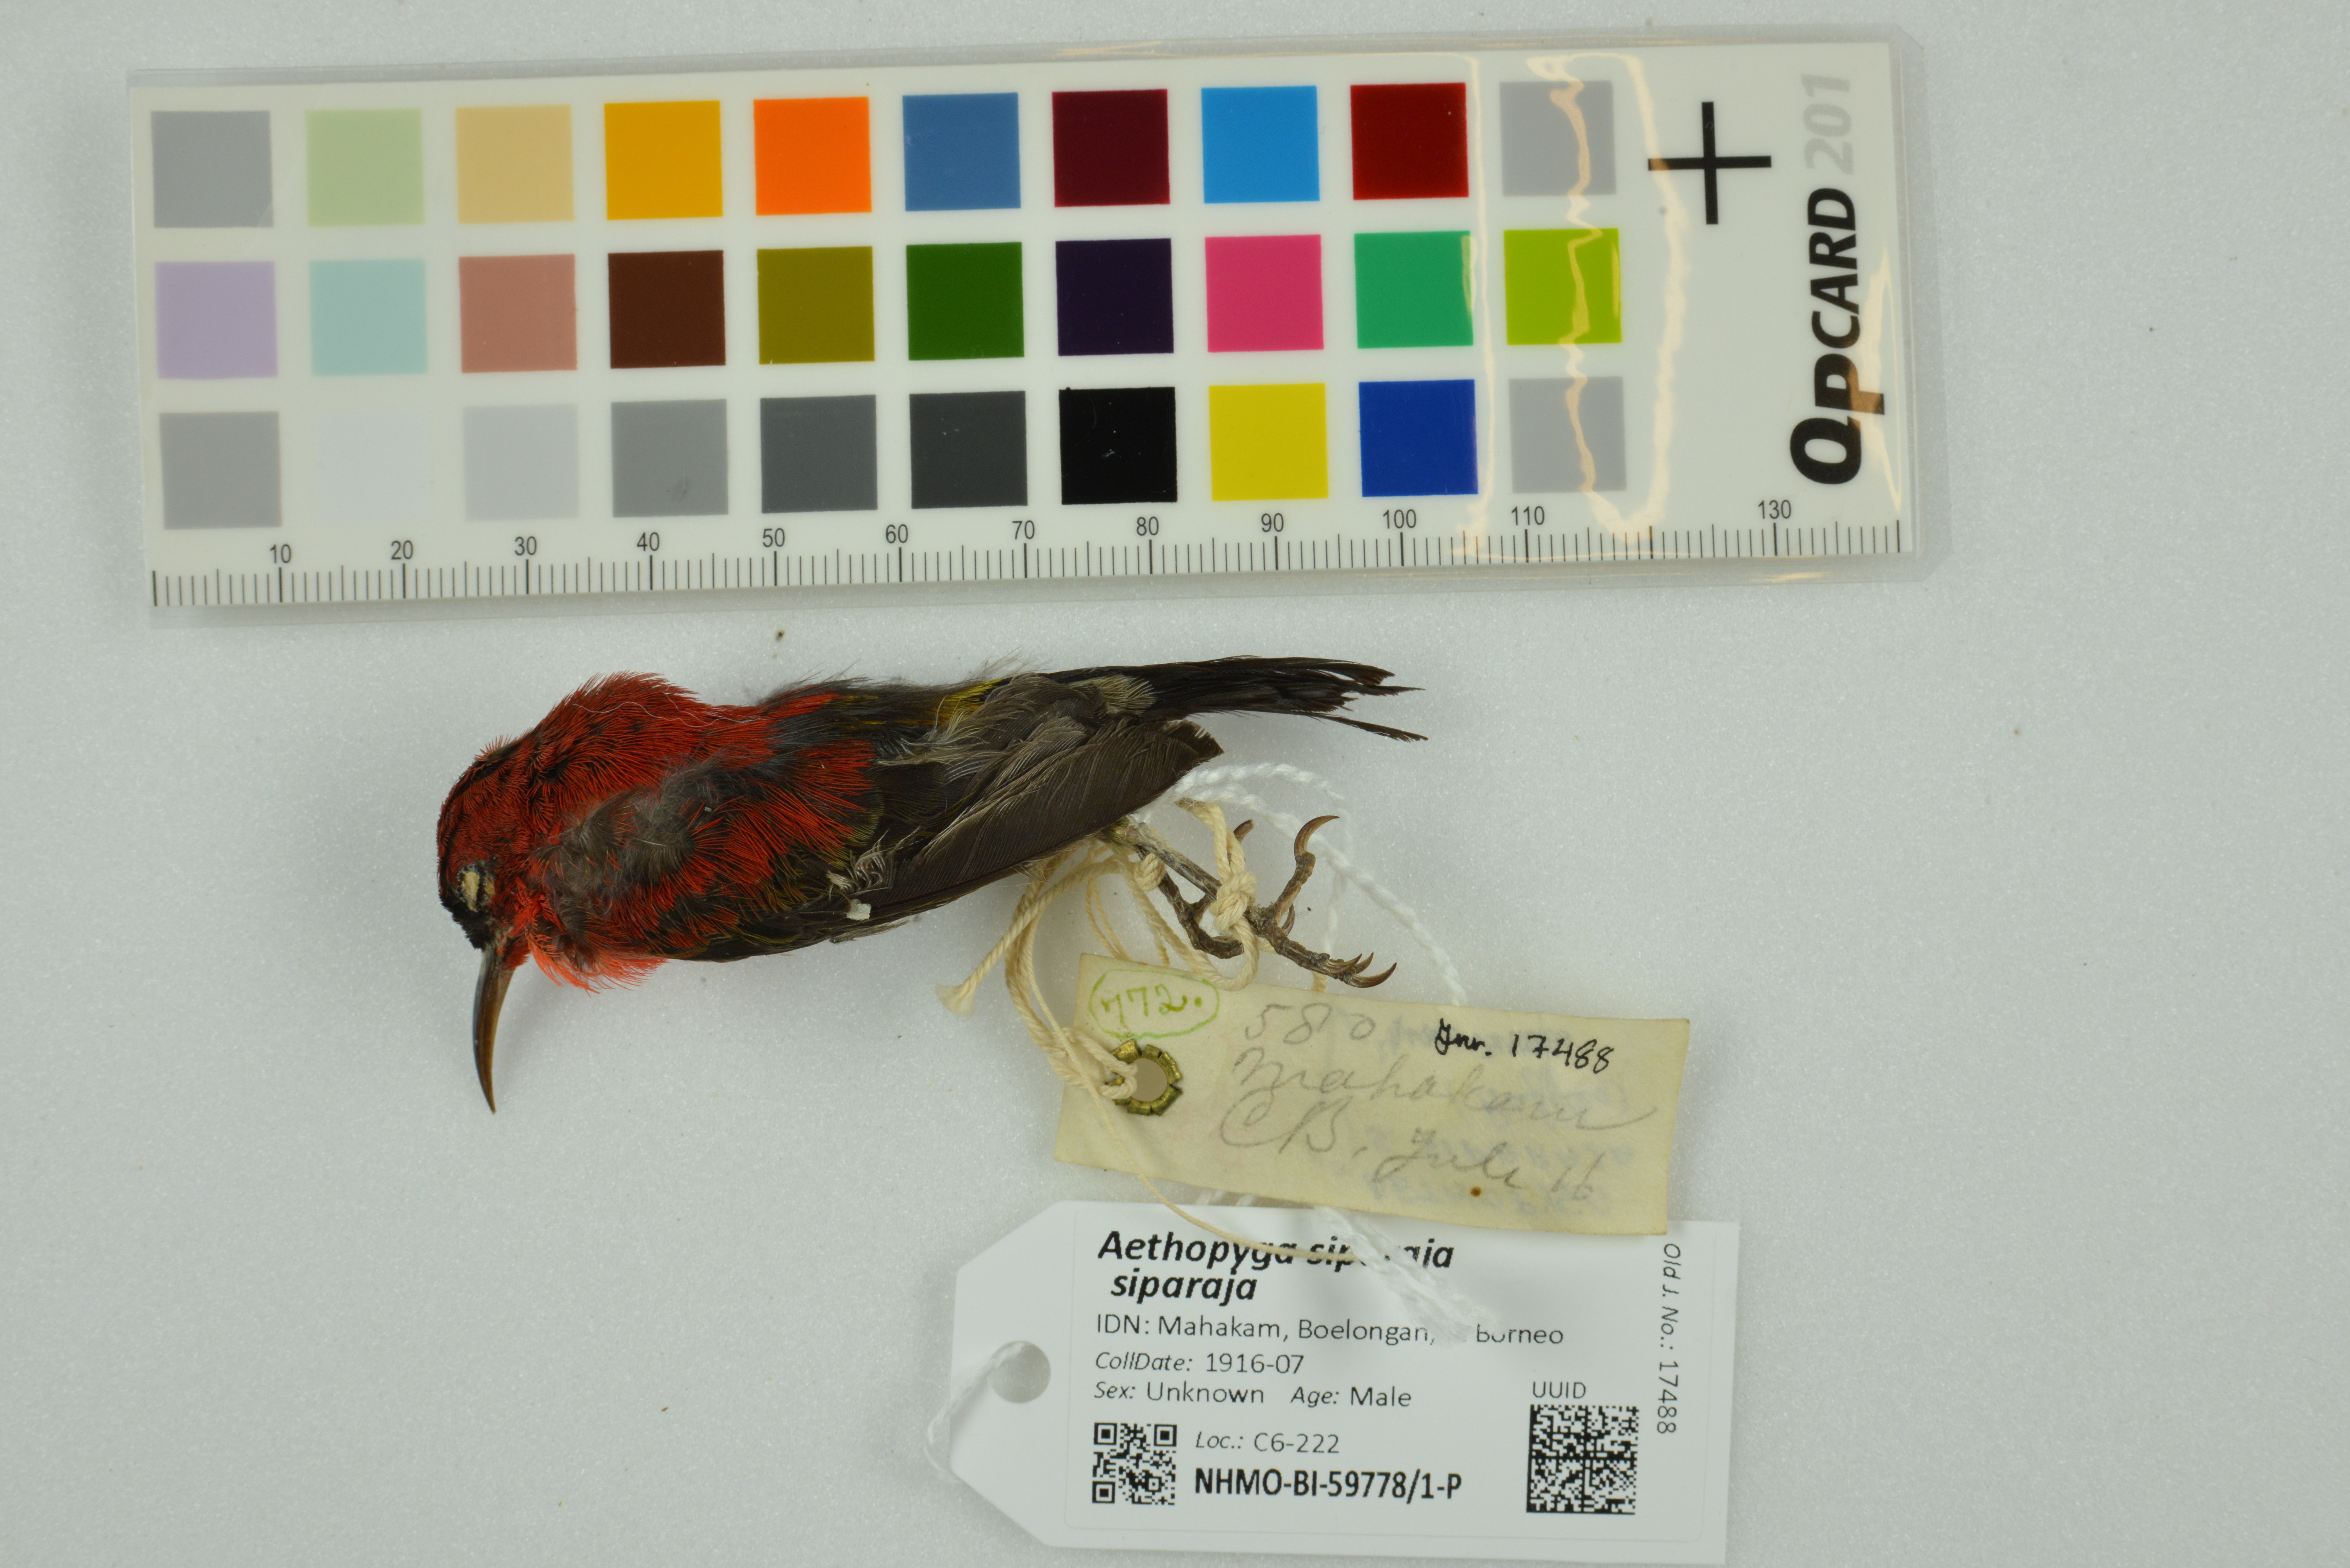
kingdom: Animalia
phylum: Chordata
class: Aves
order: Passeriformes
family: Nectariniidae
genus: Aethopyga
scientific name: Aethopyga siparaja
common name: Crimson sunbird
